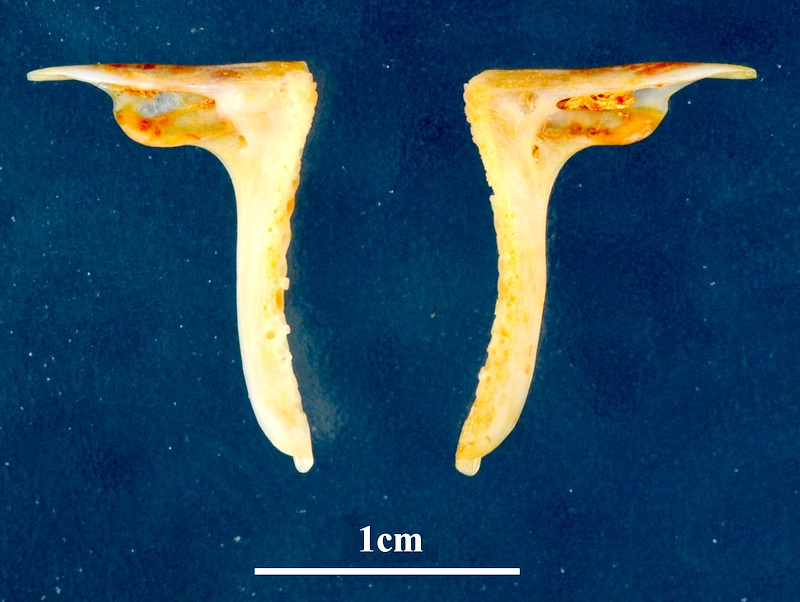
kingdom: Animalia
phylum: Chordata
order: Perciformes
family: Sparidae
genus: Dentex
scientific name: Dentex maroccanus
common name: Morocco dentex
